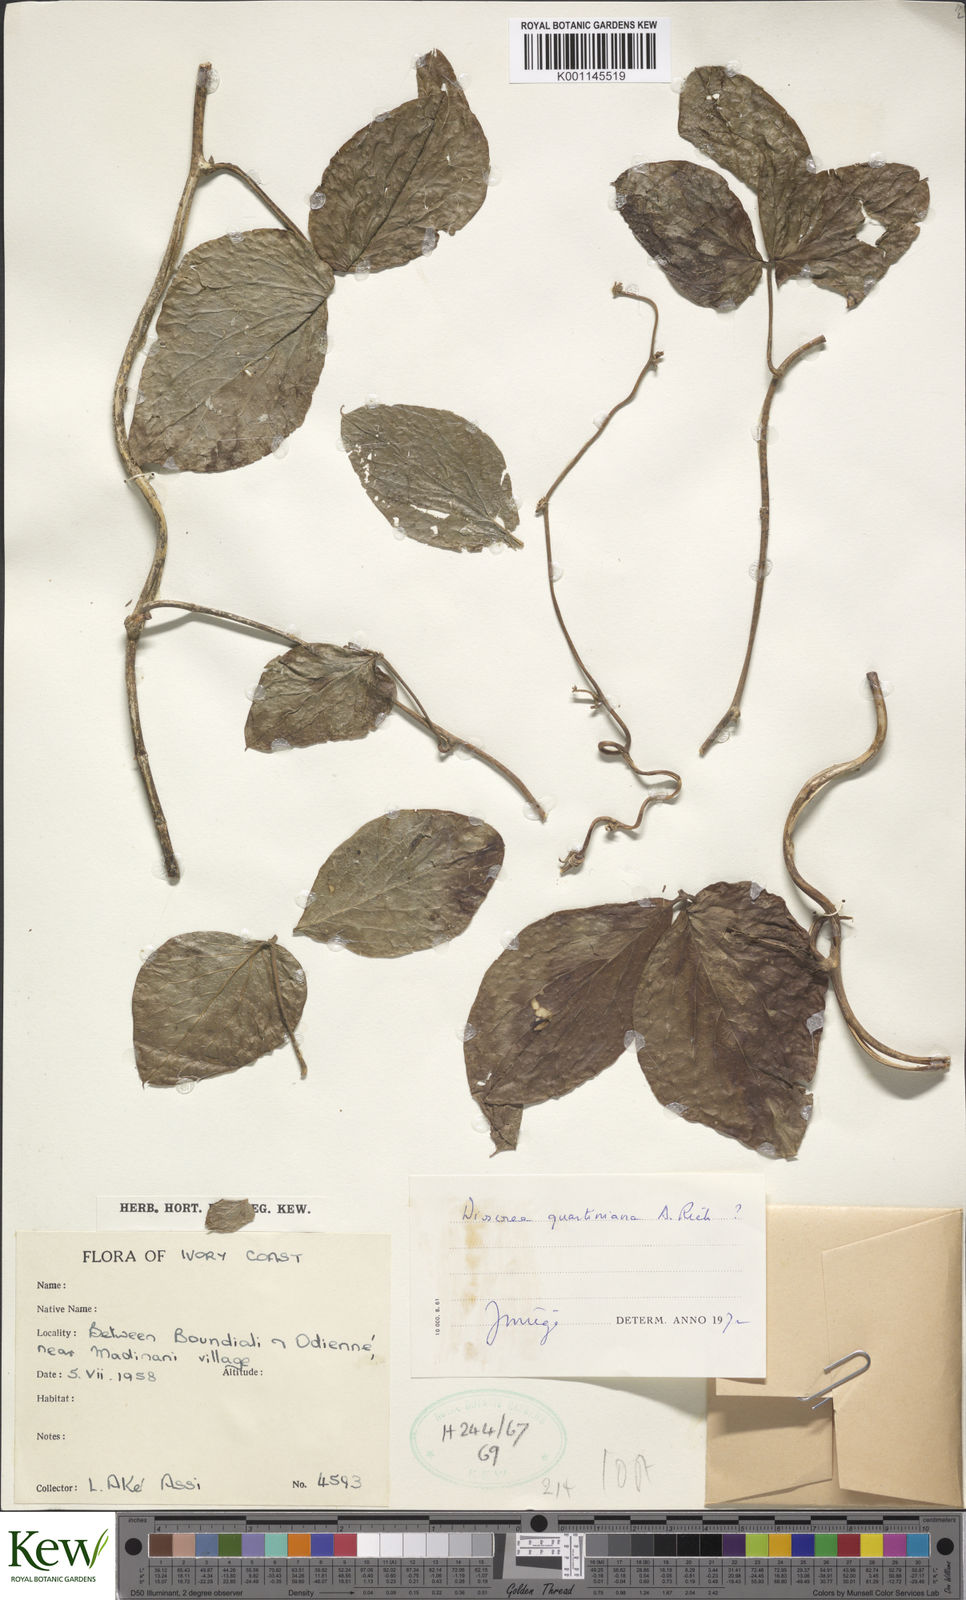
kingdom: Plantae
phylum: Tracheophyta
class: Liliopsida
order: Dioscoreales
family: Dioscoreaceae
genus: Dioscorea
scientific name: Dioscorea quartiniana
